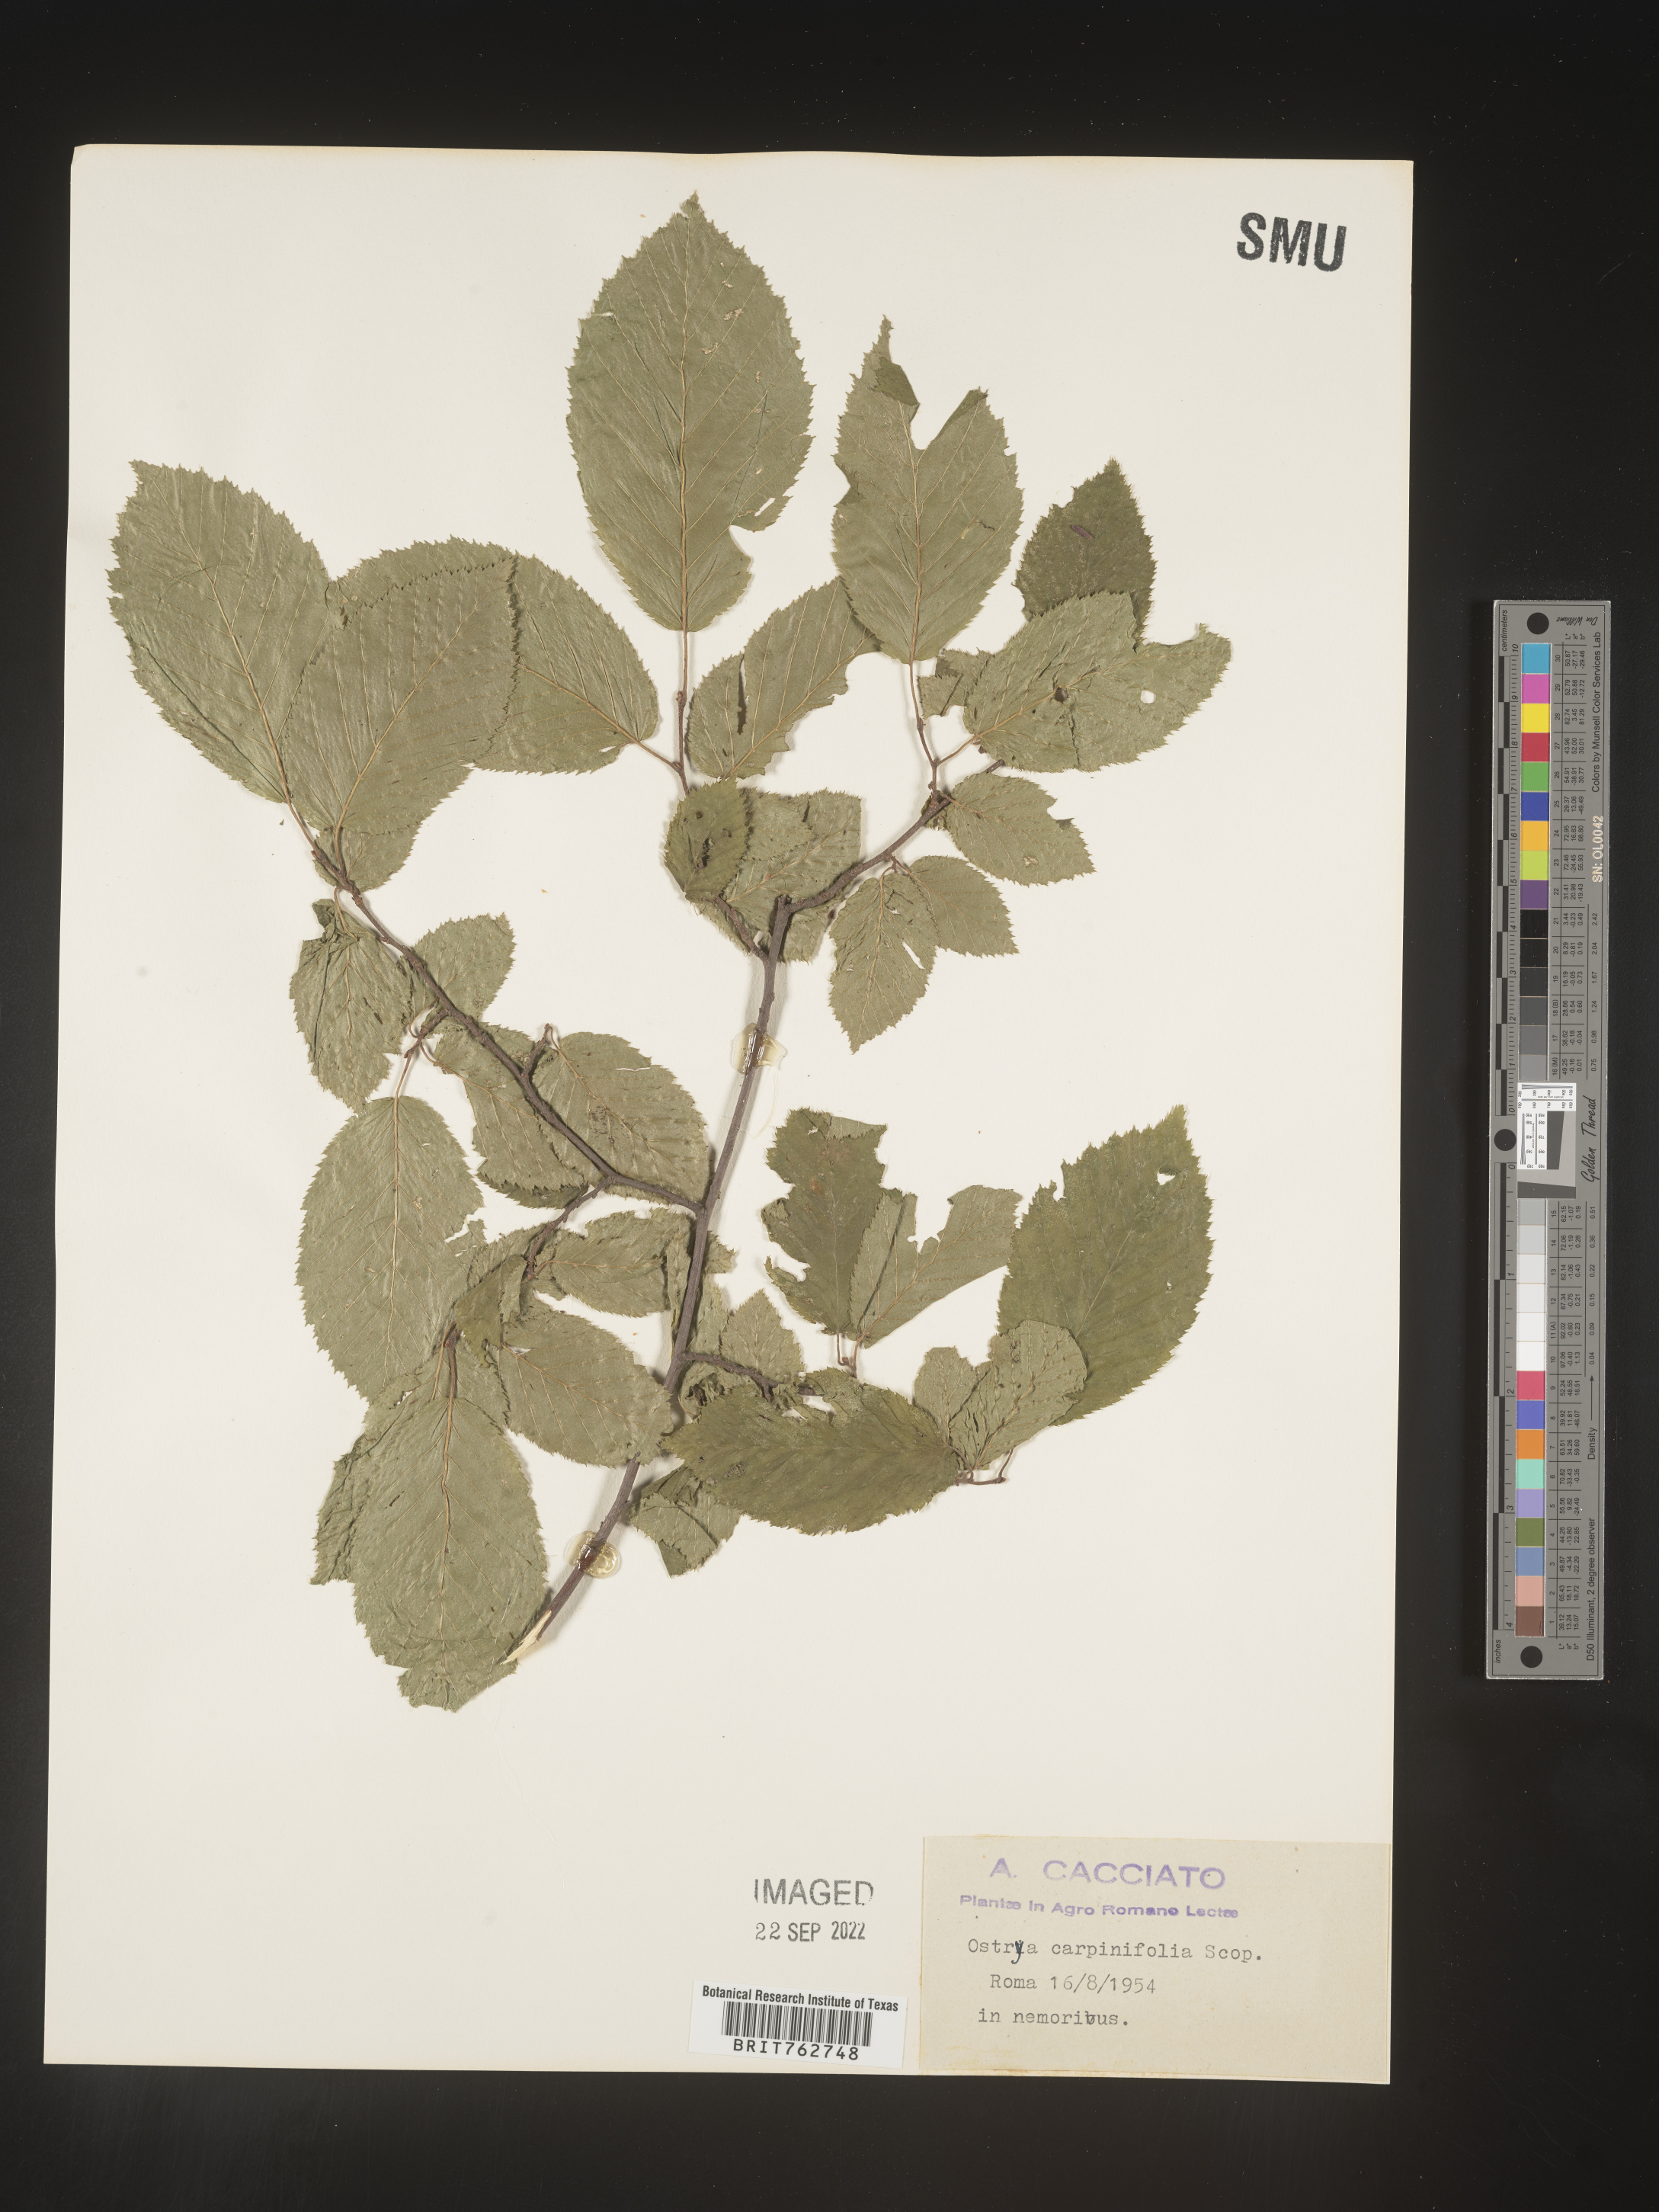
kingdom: Plantae
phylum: Tracheophyta
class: Magnoliopsida
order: Fagales
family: Betulaceae
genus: Ostrya
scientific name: Ostrya
